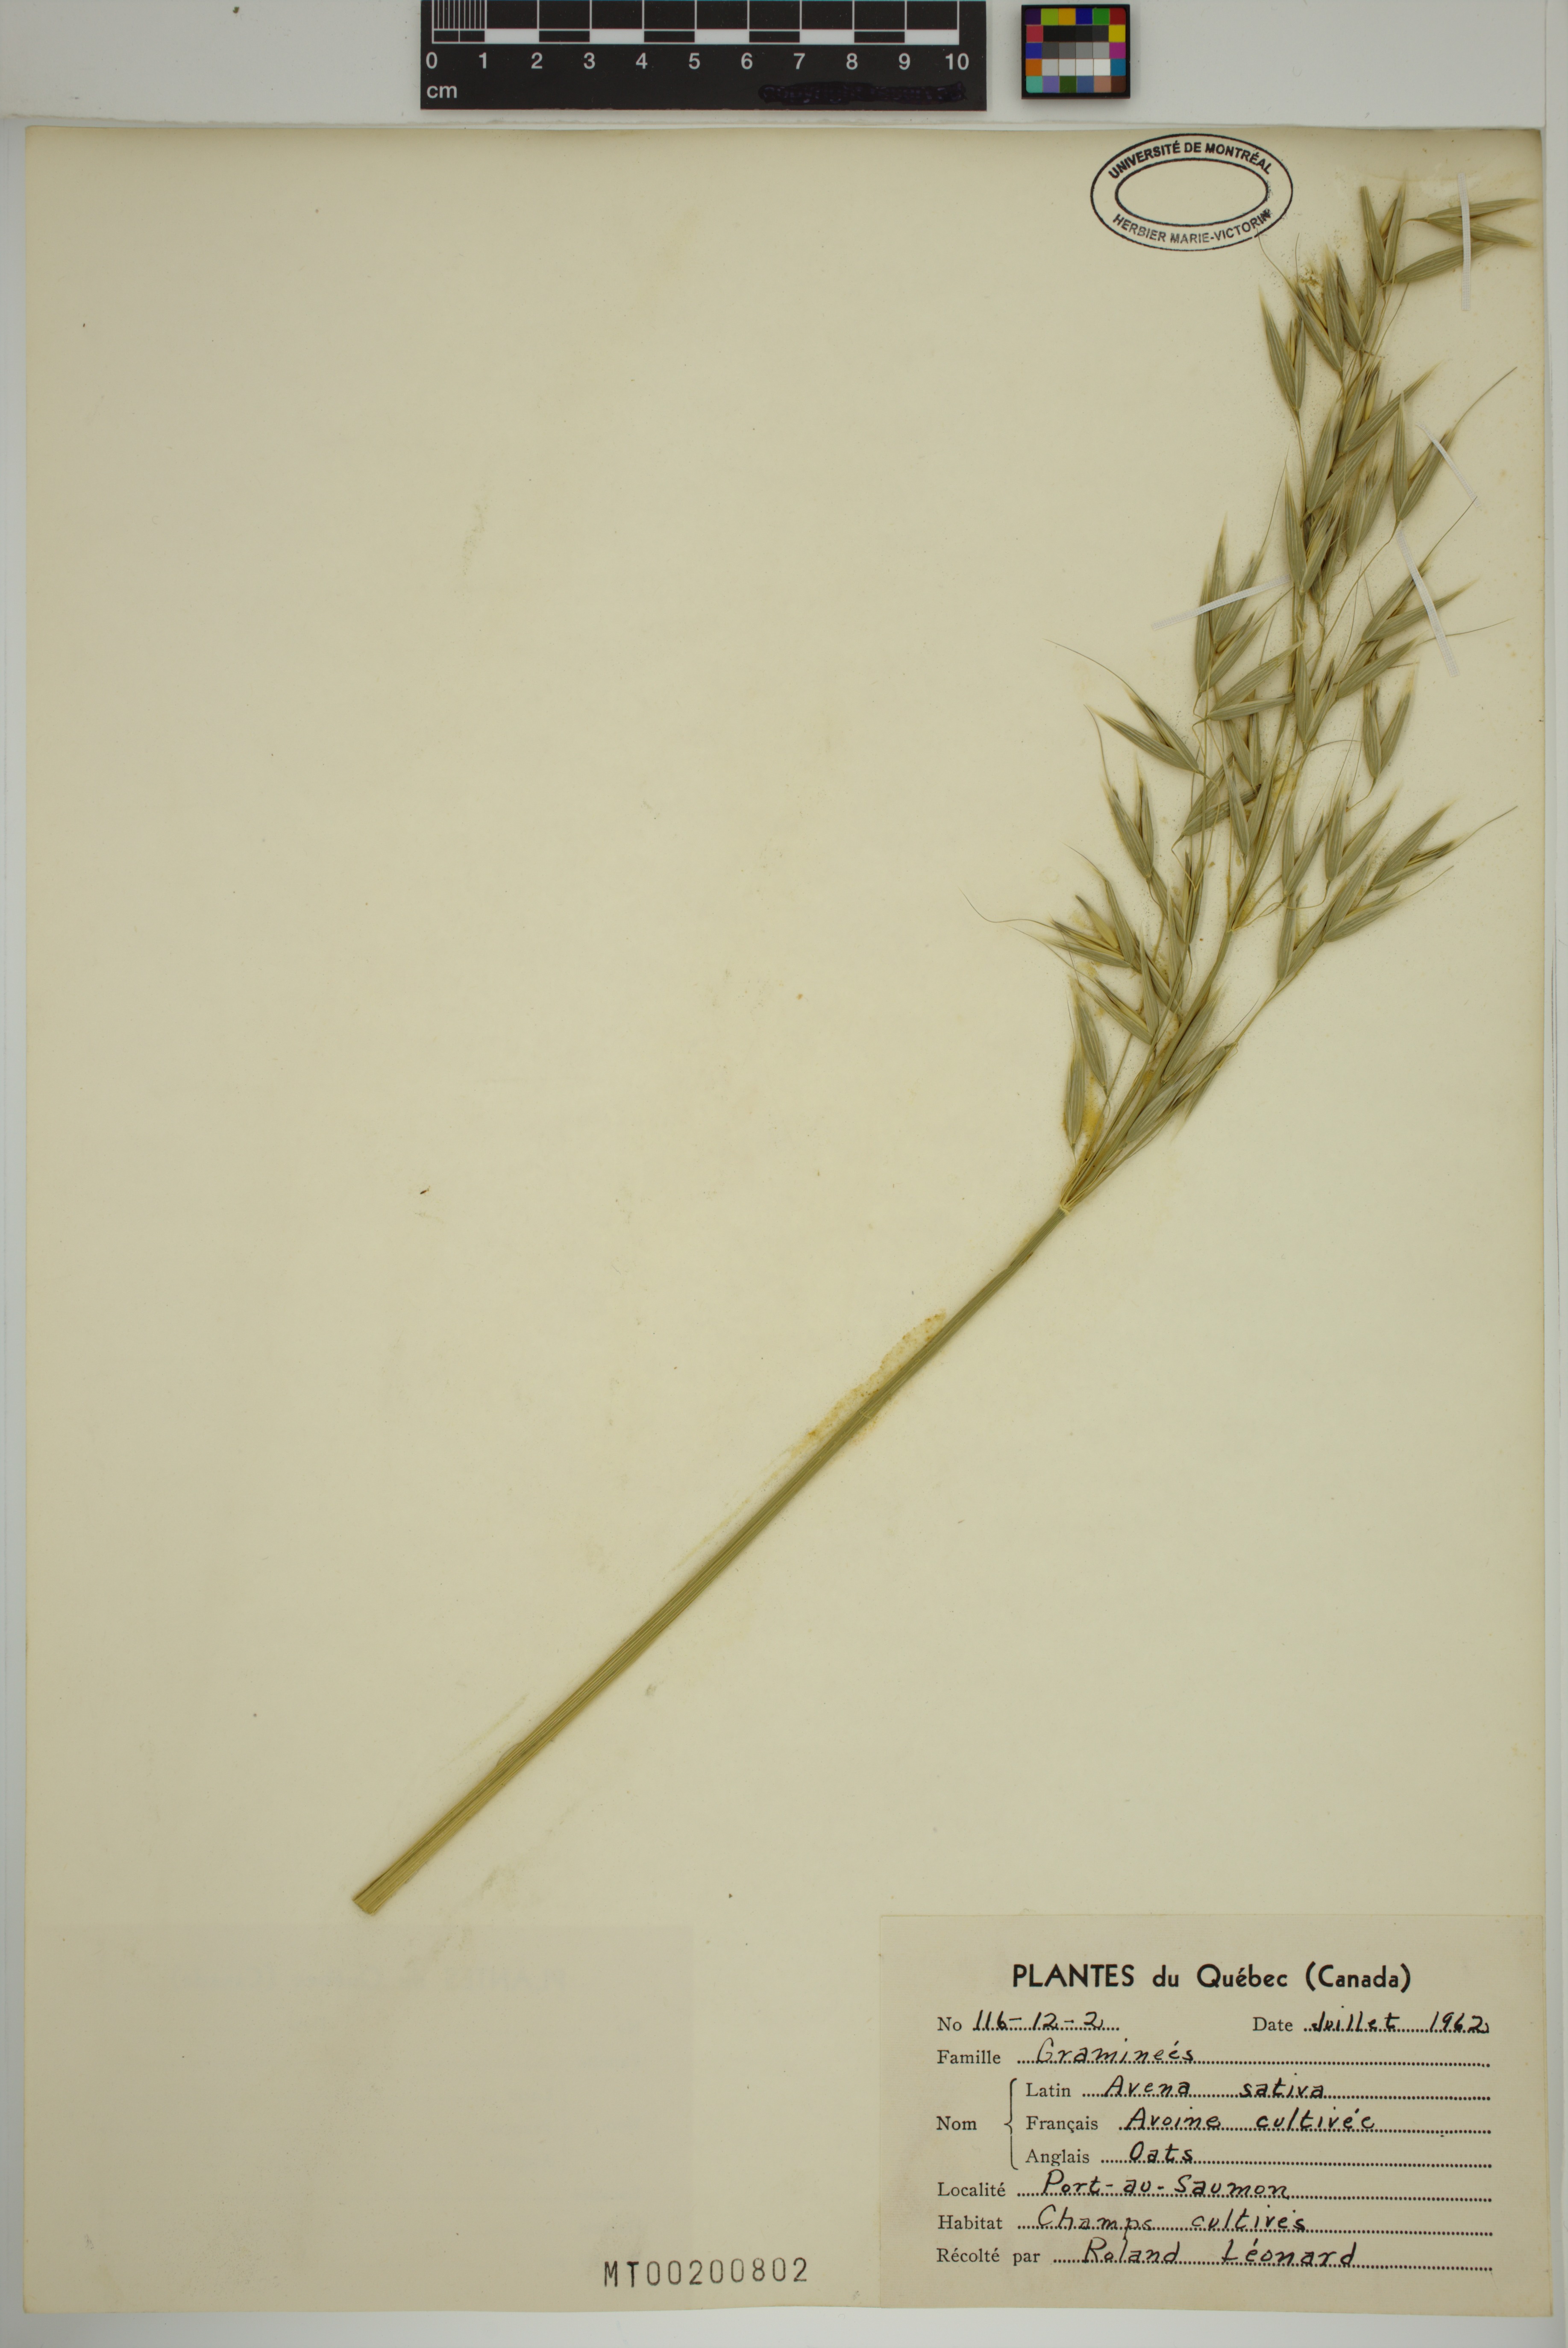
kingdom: Plantae
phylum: Tracheophyta
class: Liliopsida
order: Poales
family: Poaceae
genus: Avena
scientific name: Avena sativa
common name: Oat
